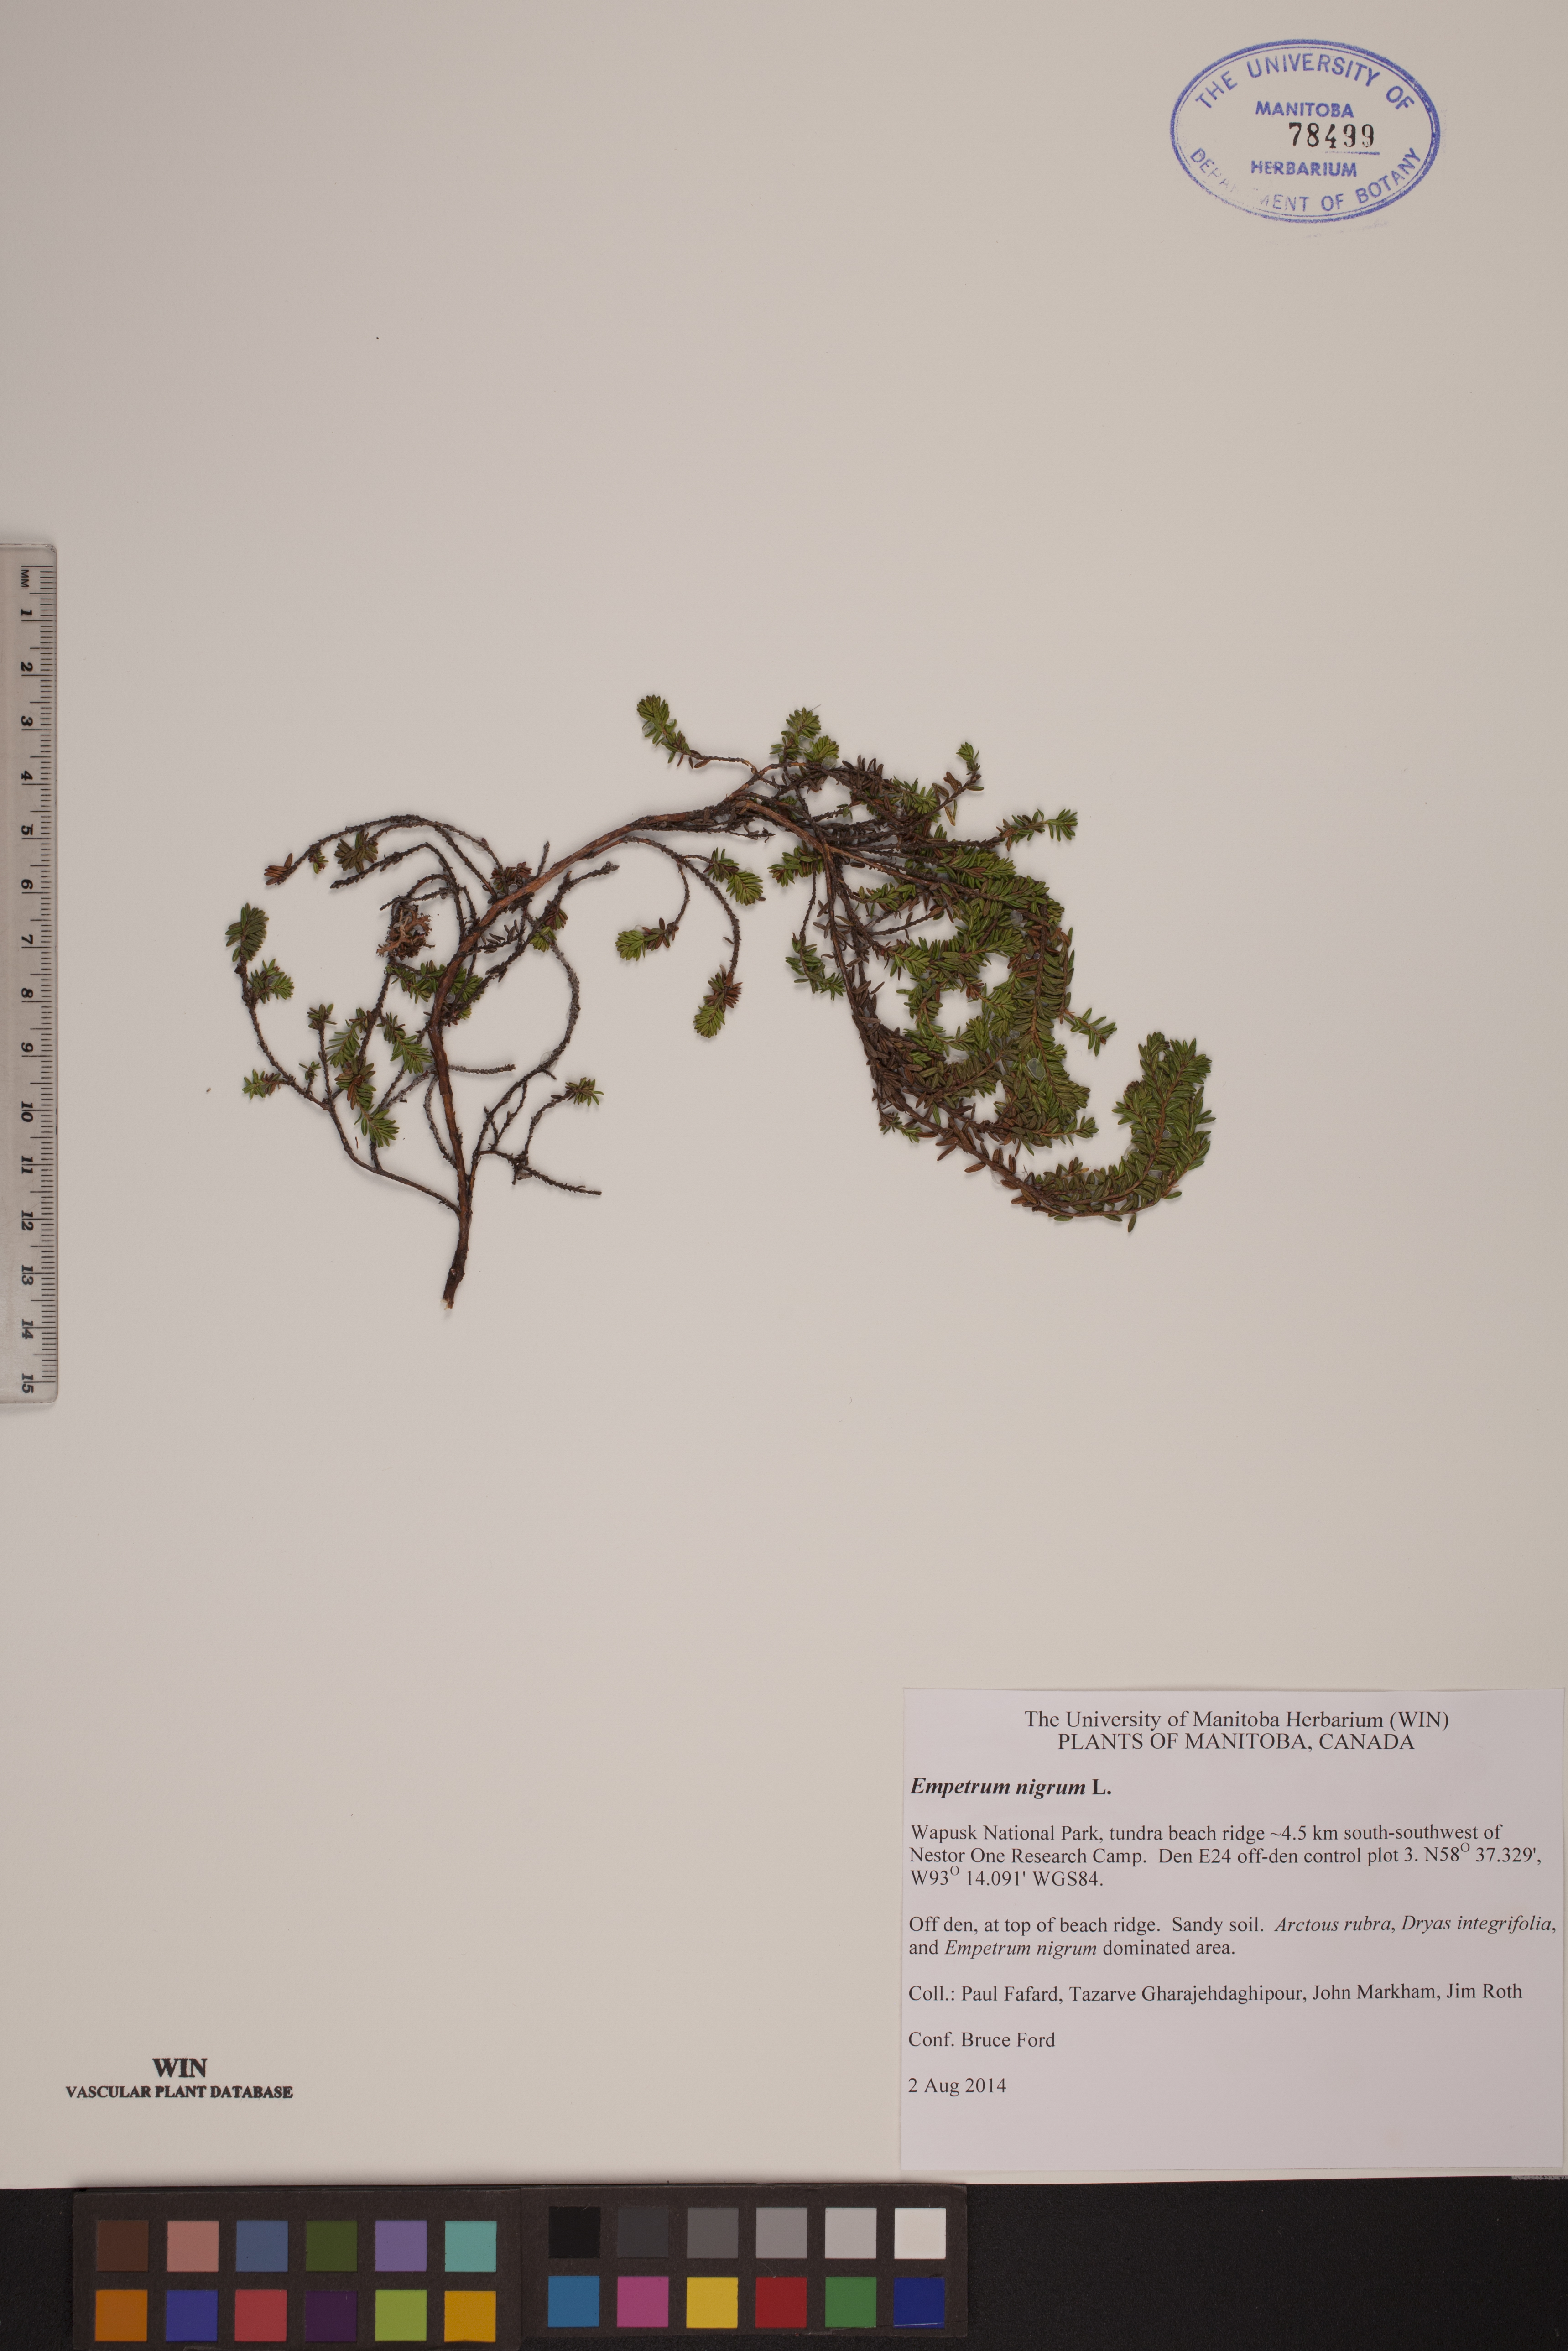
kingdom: Plantae
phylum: Tracheophyta
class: Magnoliopsida
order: Ericales
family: Ericaceae
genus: Empetrum
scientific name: Empetrum nigrum
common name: Black crowberry
